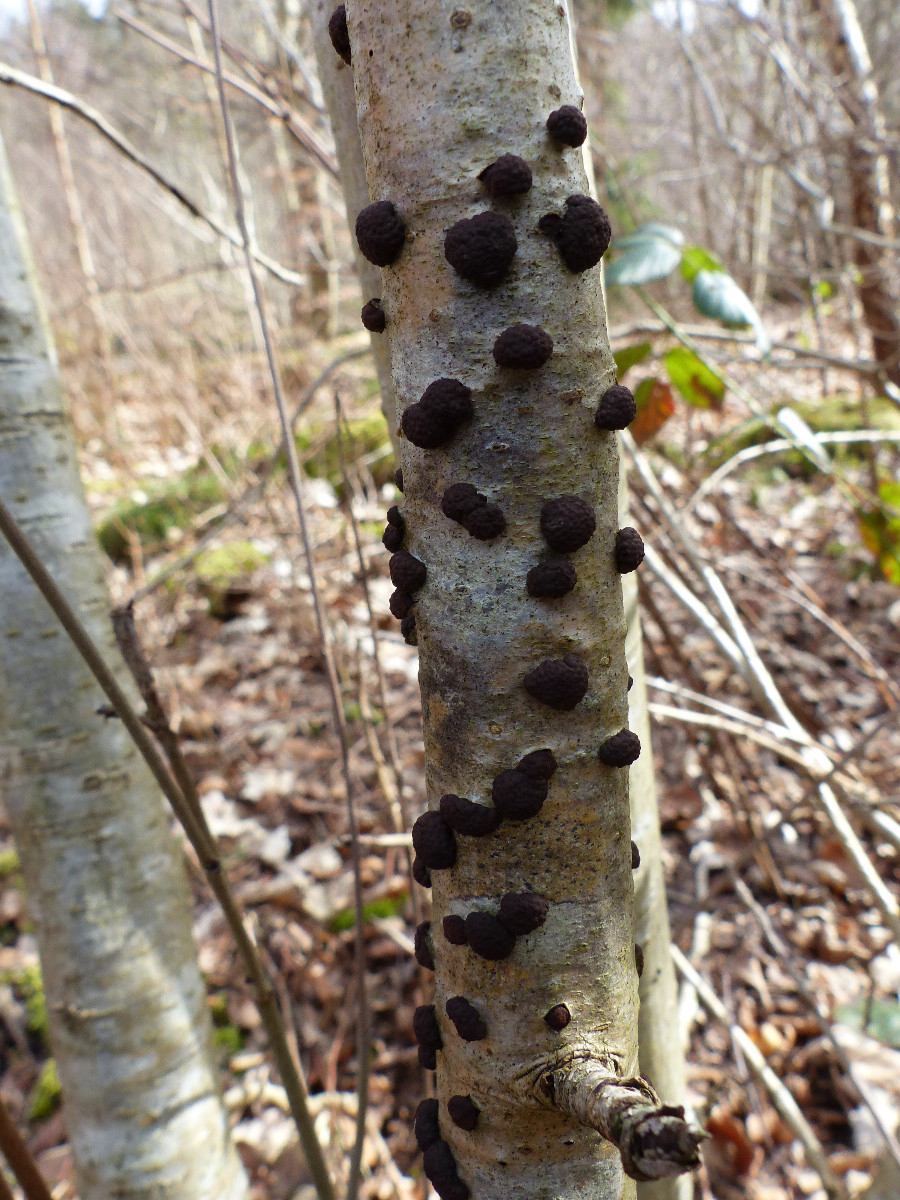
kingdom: Fungi
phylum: Ascomycota
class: Sordariomycetes
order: Xylariales
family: Hypoxylaceae
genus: Jackrogersella
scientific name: Jackrogersella multiformis
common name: foranderlig kulbær
